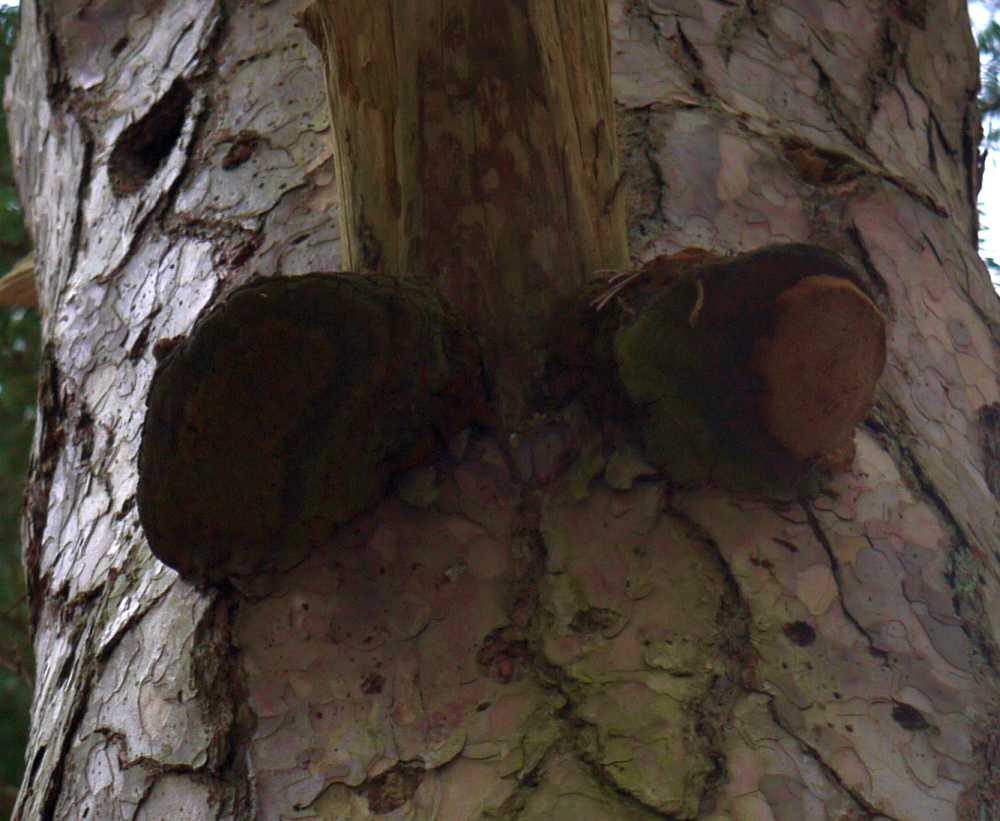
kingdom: Fungi
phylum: Basidiomycota
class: Agaricomycetes
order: Hymenochaetales
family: Hymenochaetaceae
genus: Porodaedalea
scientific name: Porodaedalea pini
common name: fyrre-ildporesvamp
